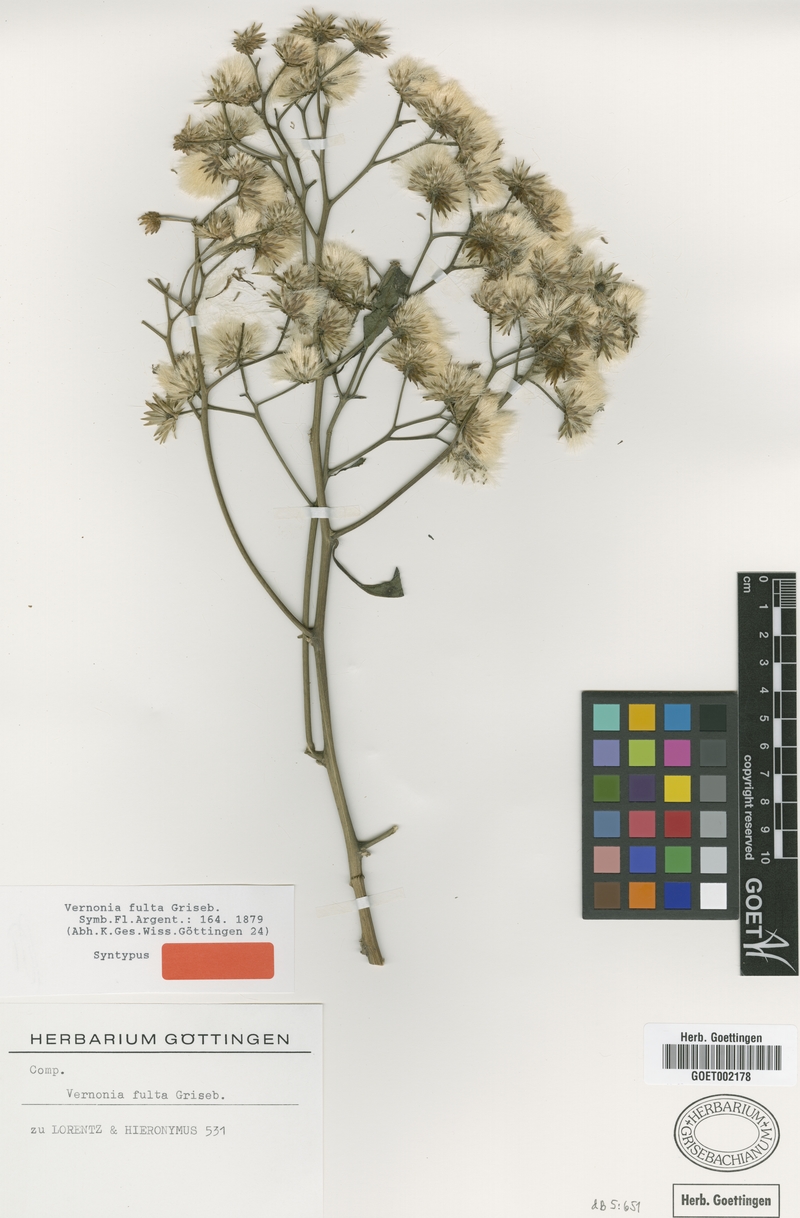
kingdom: Plantae
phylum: Tracheophyta
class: Magnoliopsida
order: Asterales
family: Asteraceae
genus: Quechualia
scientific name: Quechualia fulta
